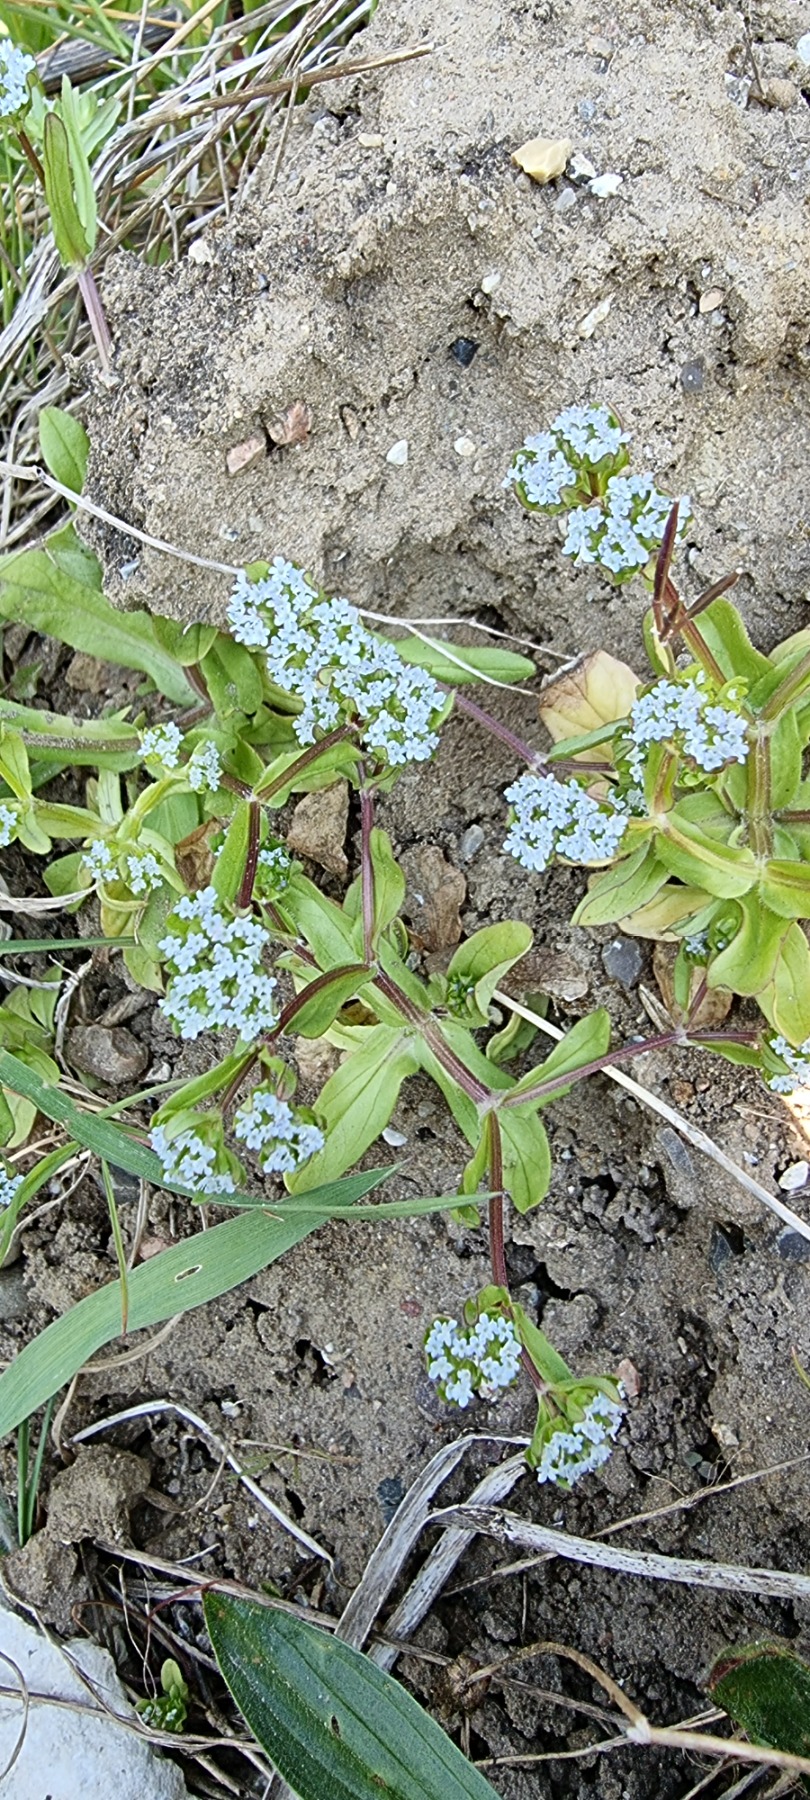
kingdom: Plantae
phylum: Tracheophyta
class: Magnoliopsida
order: Dipsacales
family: Caprifoliaceae
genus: Valerianella
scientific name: Valerianella locusta
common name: Tandfri vårsalat
